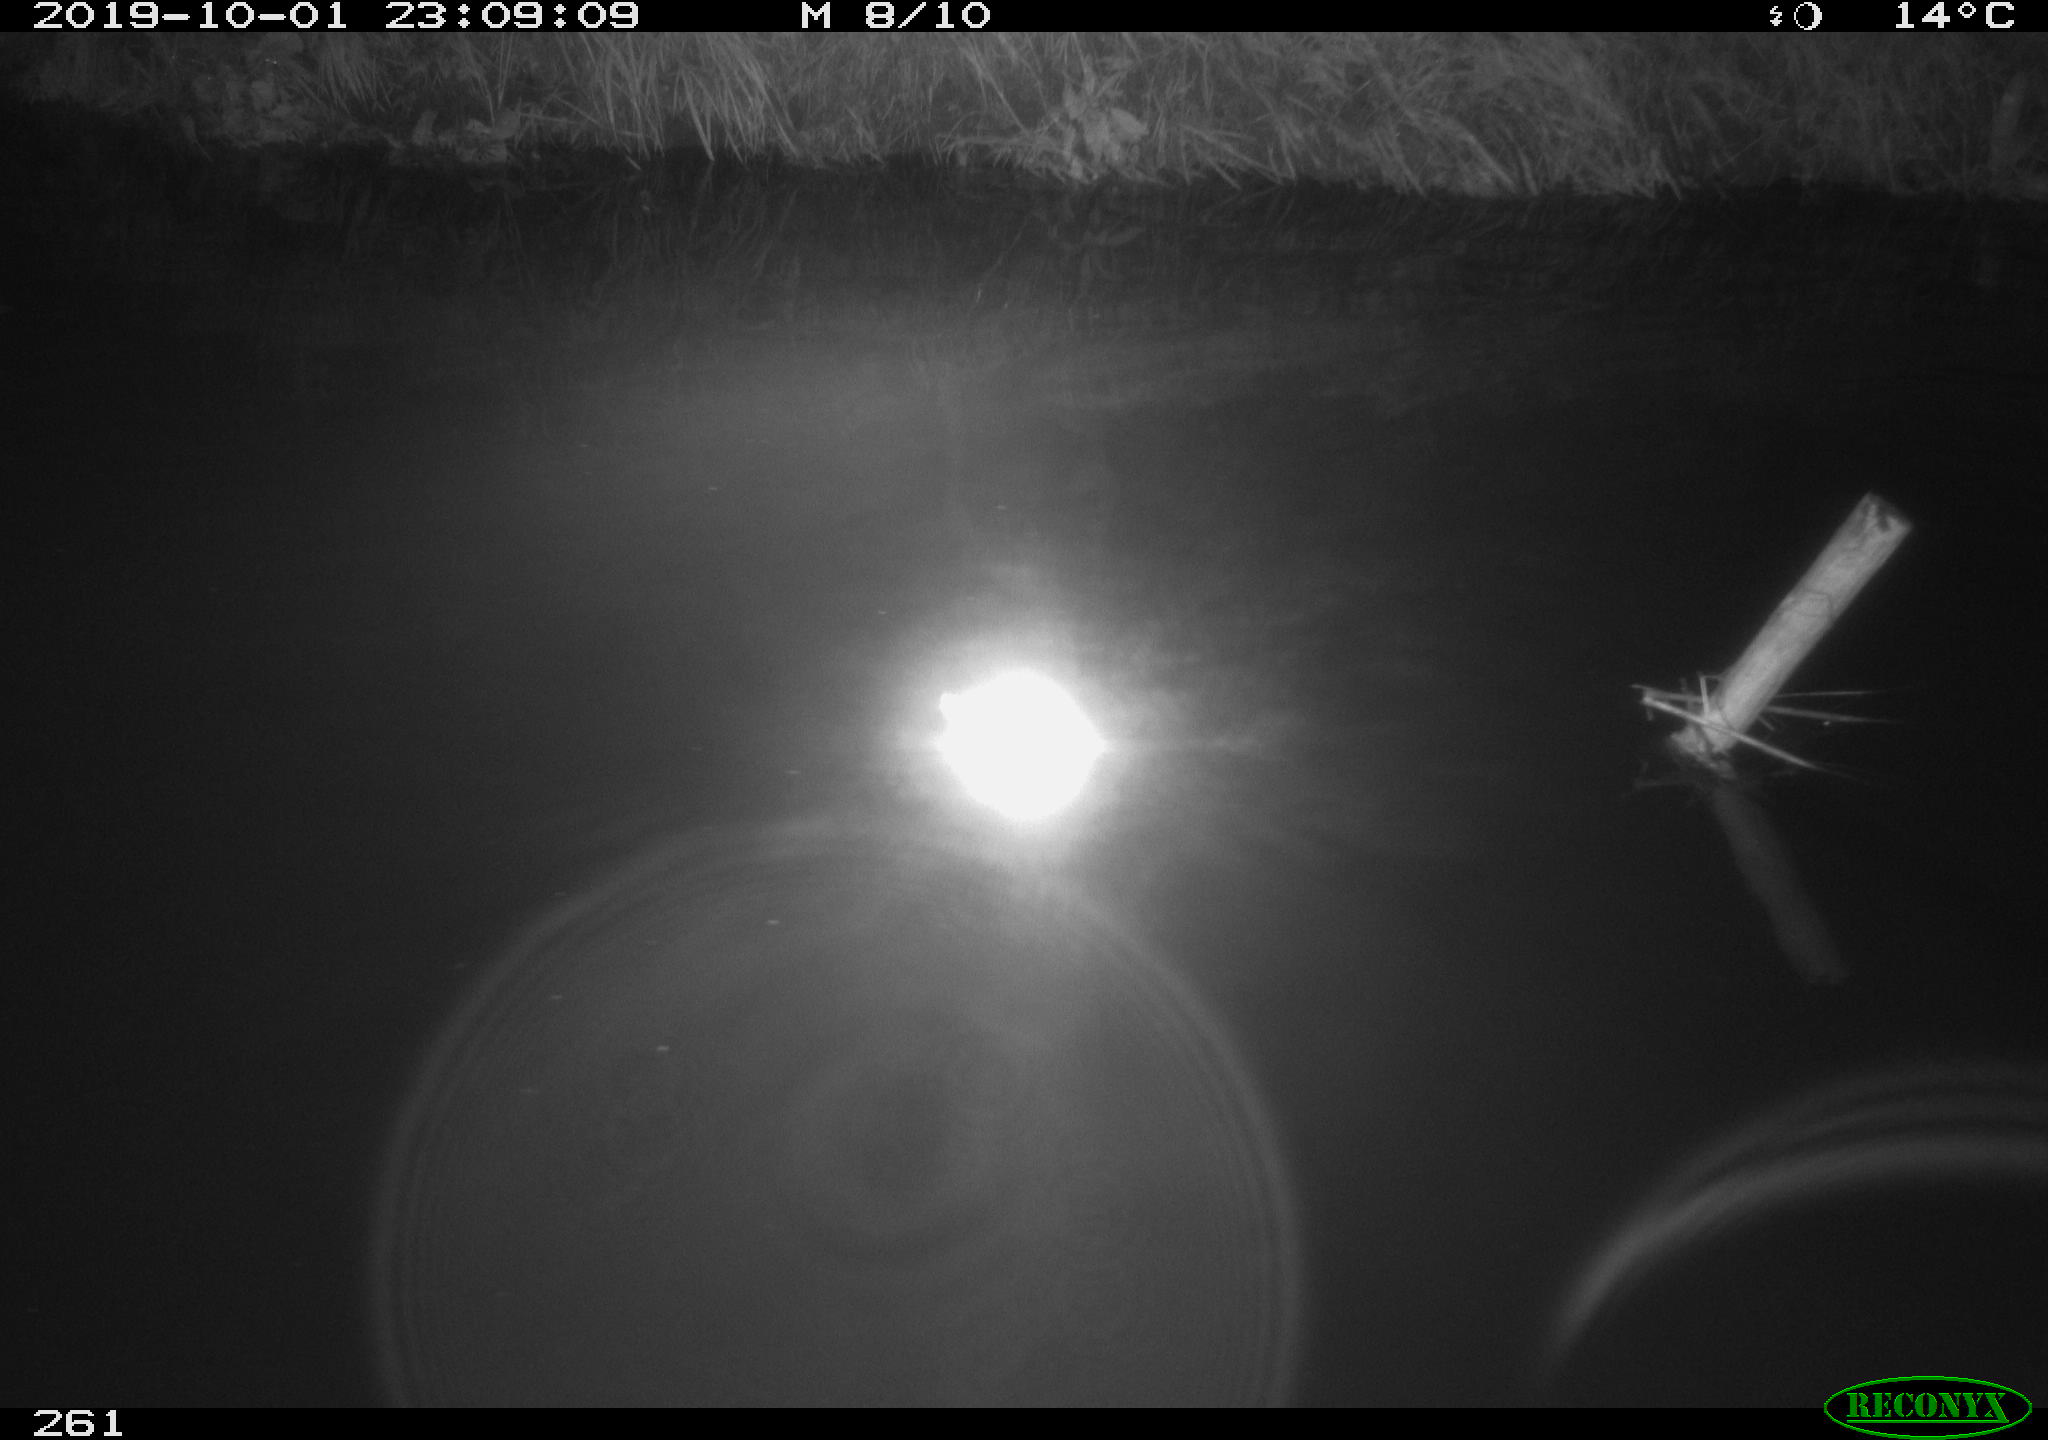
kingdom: Animalia
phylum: Chordata
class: Aves
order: Anseriformes
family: Anatidae
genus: Anas
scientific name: Anas platyrhynchos
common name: Mallard
